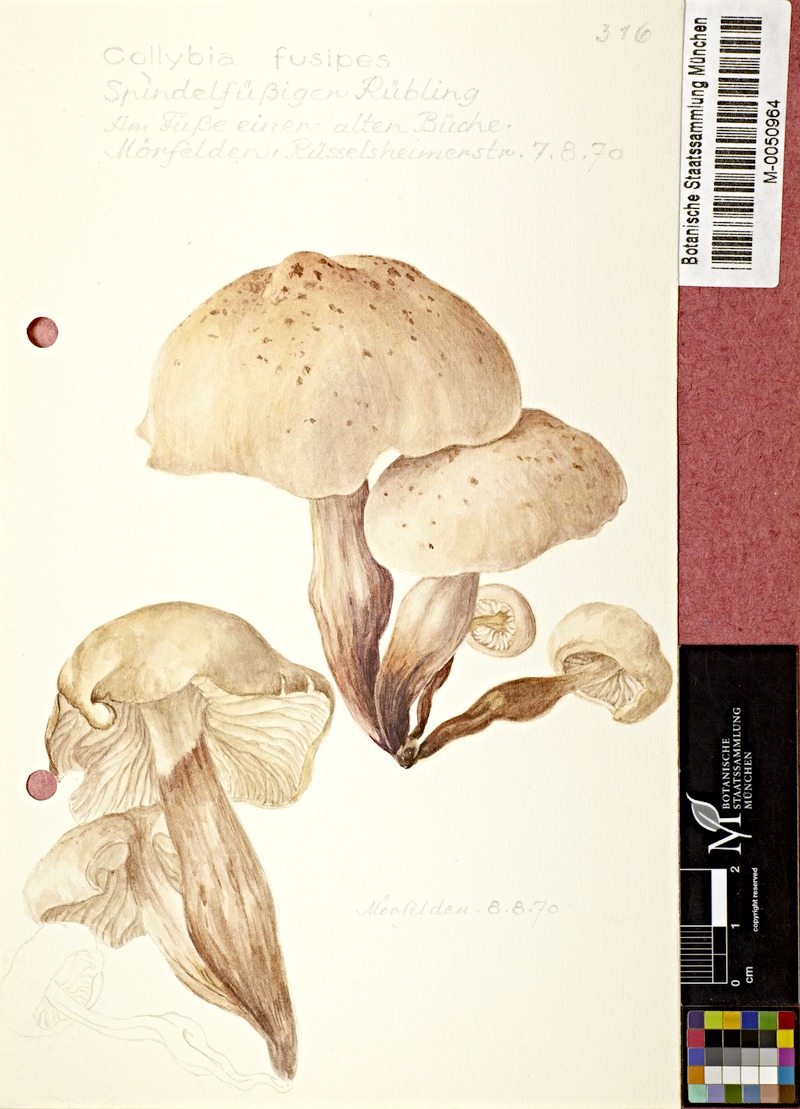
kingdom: Fungi
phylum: Basidiomycota
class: Agaricomycetes
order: Agaricales
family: Omphalotaceae
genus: Gymnopus
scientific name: Gymnopus fusipes
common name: Spindle shank
